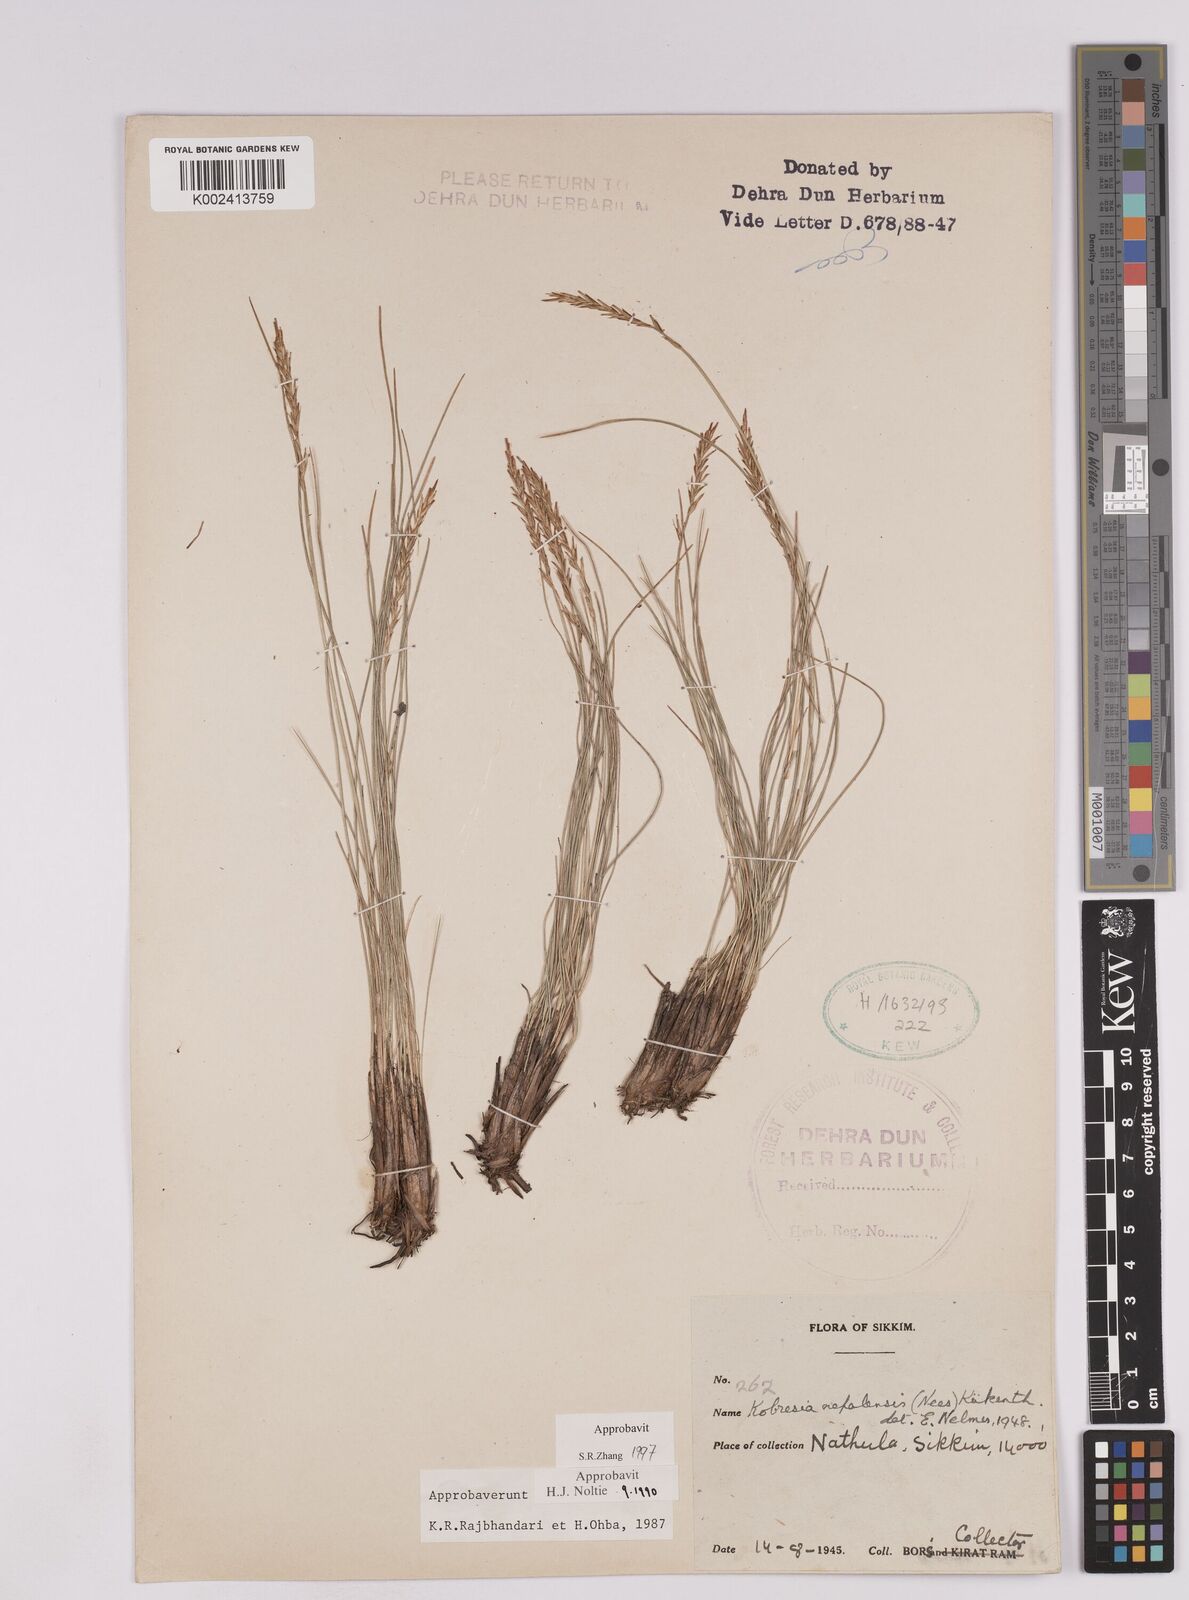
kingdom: Plantae
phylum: Tracheophyta
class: Liliopsida
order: Poales
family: Cyperaceae
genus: Carex
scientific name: Carex unciniiformis
